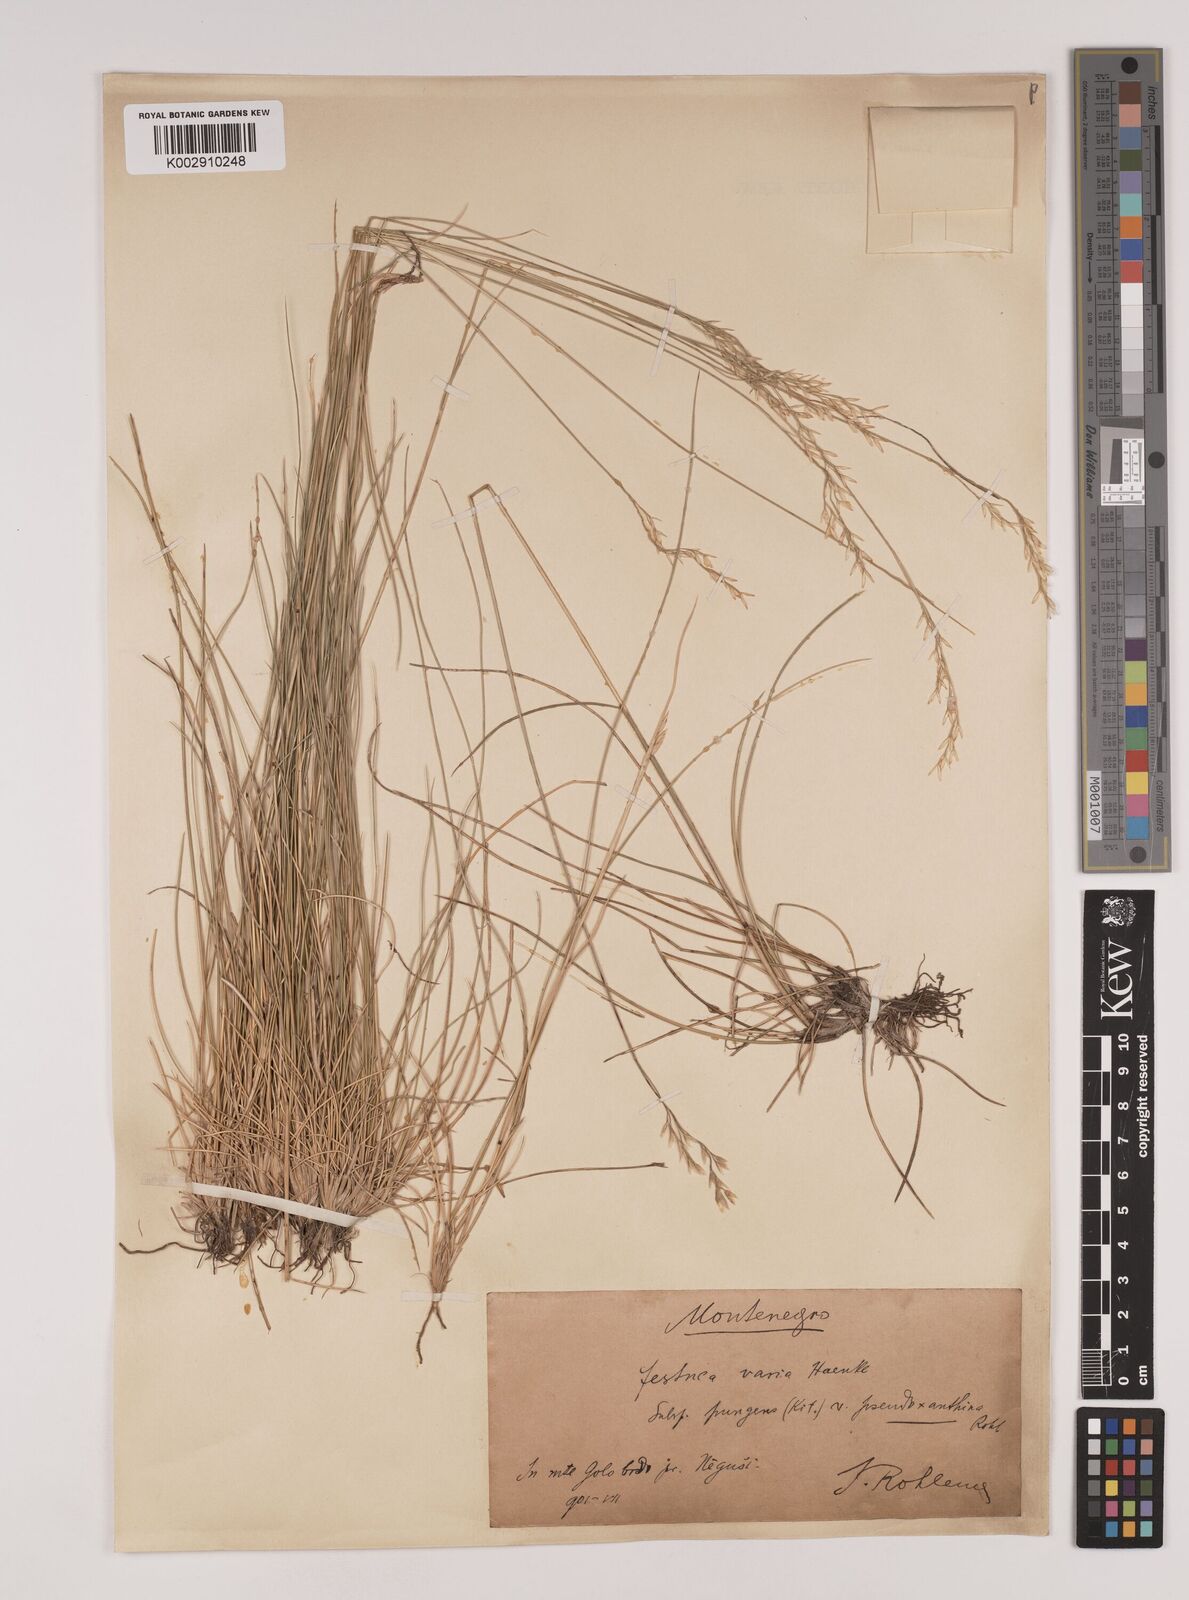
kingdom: Plantae
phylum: Tracheophyta
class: Liliopsida
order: Poales
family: Poaceae
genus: Festuca
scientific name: Festuca bosniaca
